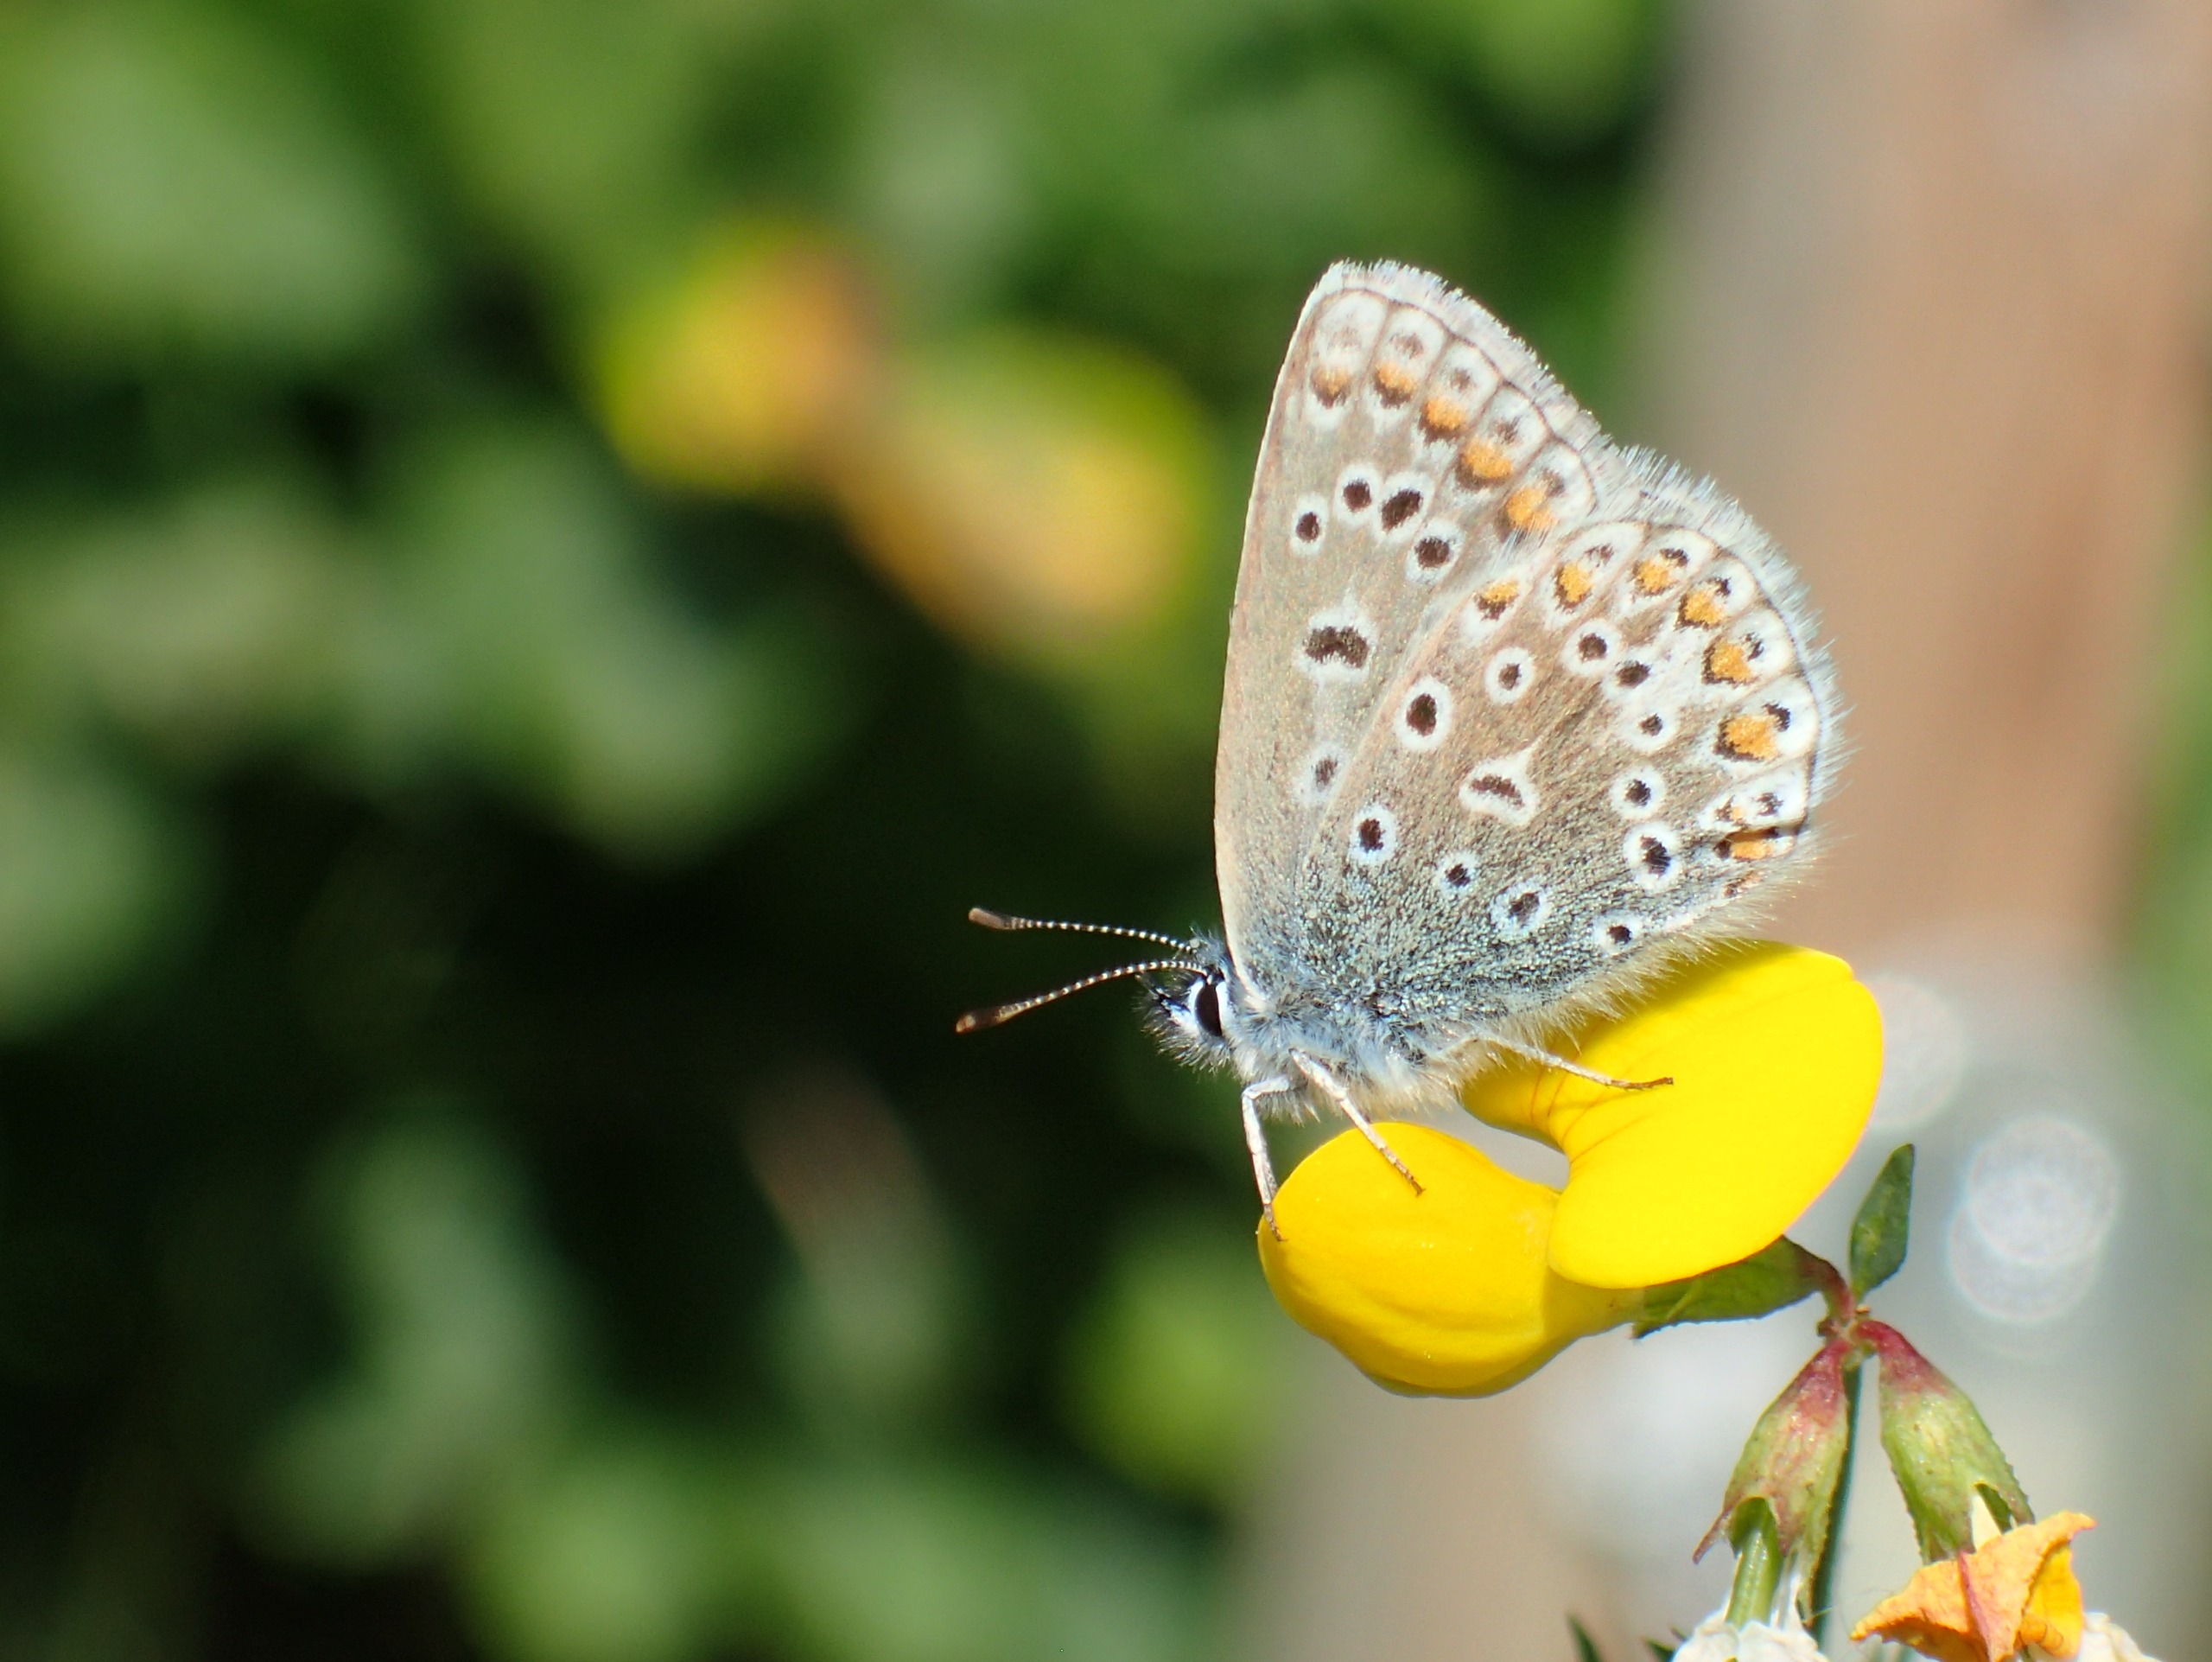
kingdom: Animalia
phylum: Arthropoda
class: Insecta
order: Lepidoptera
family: Lycaenidae
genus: Polyommatus
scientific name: Polyommatus icarus
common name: Almindelig blåfugl
